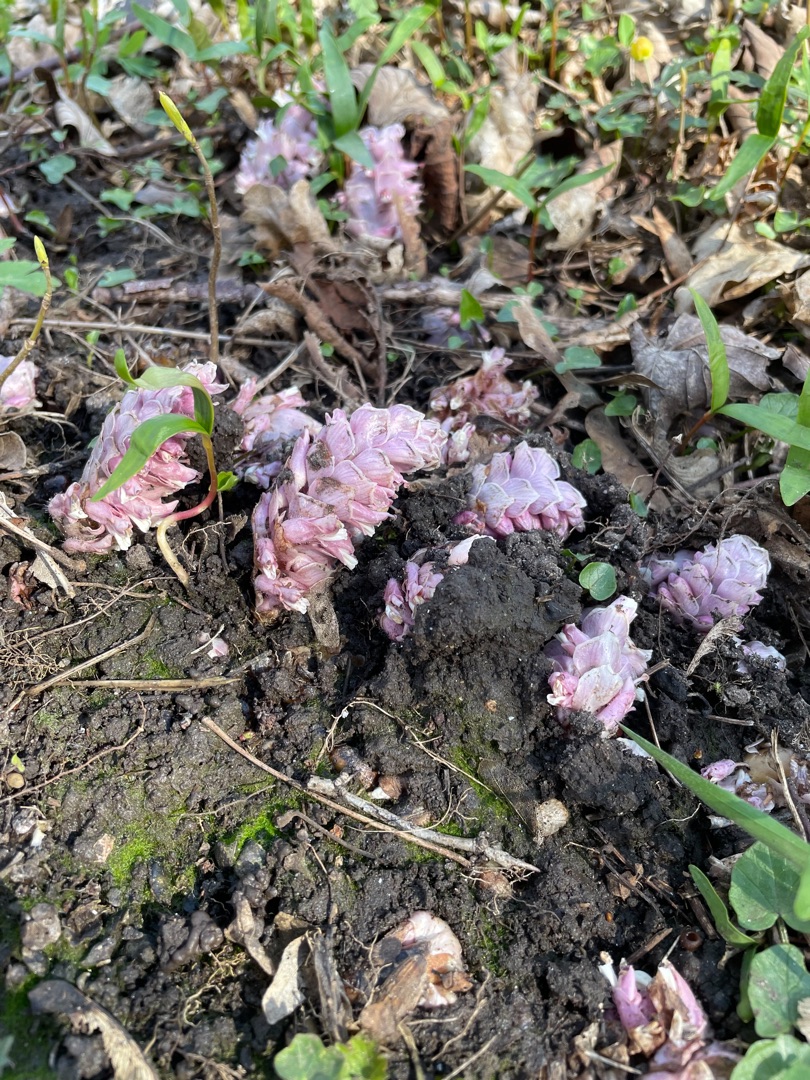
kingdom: Plantae
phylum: Tracheophyta
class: Magnoliopsida
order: Lamiales
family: Orobanchaceae
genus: Lathraea
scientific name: Lathraea squamaria
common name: Skælrod
